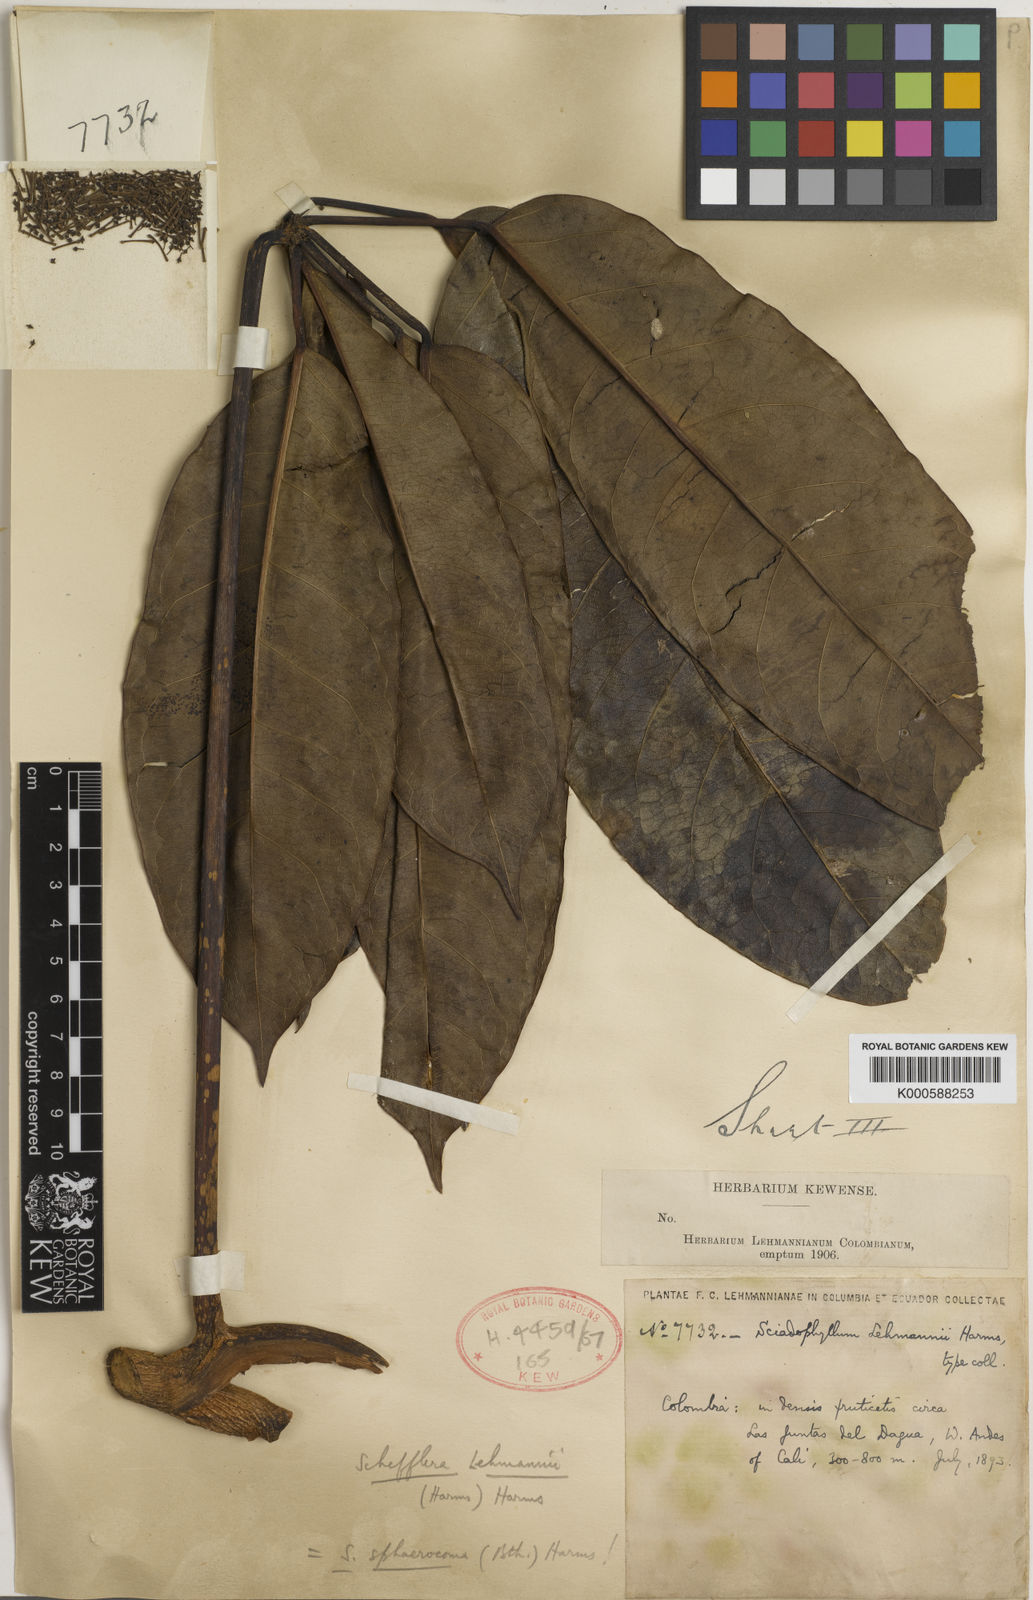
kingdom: Plantae
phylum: Tracheophyta
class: Magnoliopsida
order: Apiales
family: Araliaceae
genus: Sciodaphyllum
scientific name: Sciodaphyllum sphaerocoma
